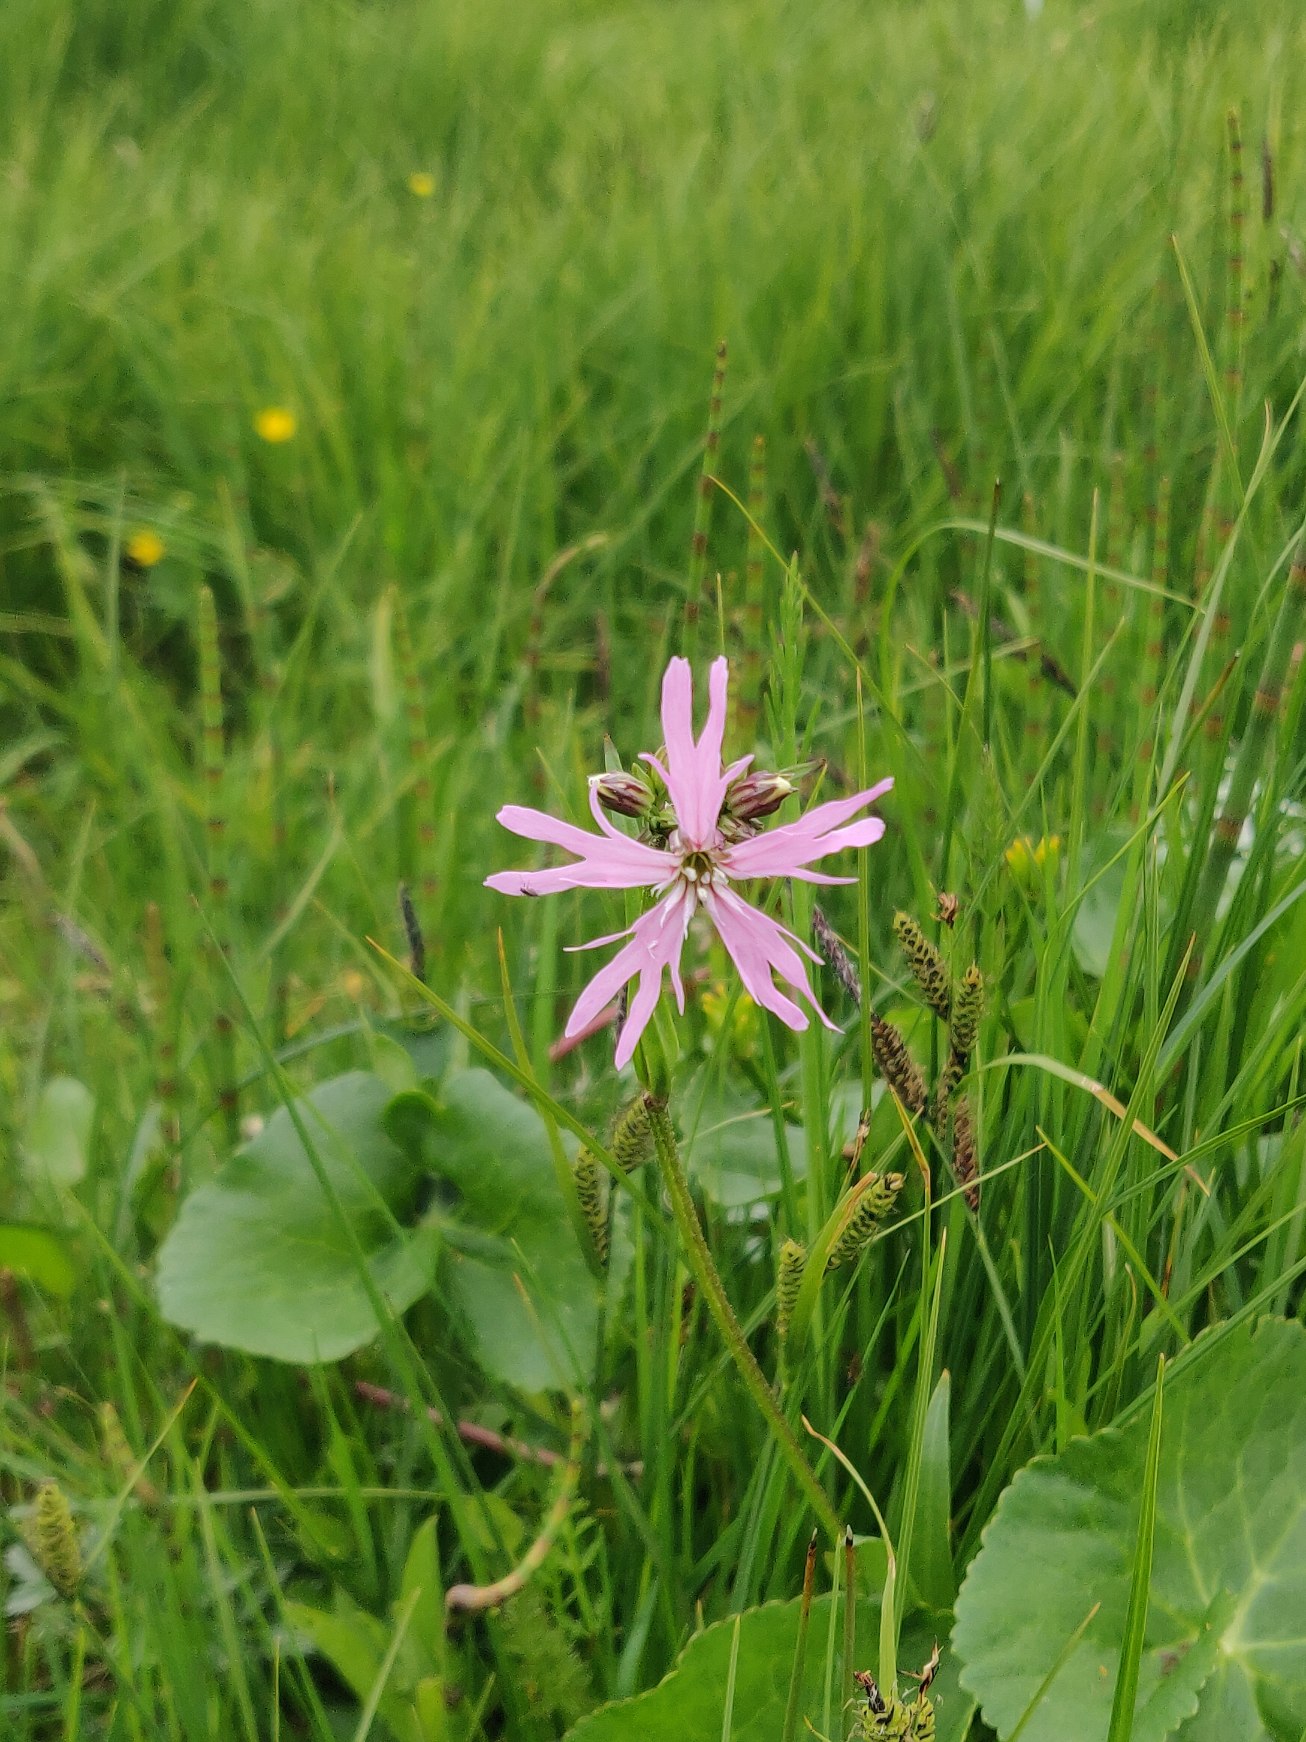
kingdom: Plantae
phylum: Tracheophyta
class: Magnoliopsida
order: Caryophyllales
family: Caryophyllaceae
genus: Silene
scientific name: Silene flos-cuculi
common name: Trævlekrone
